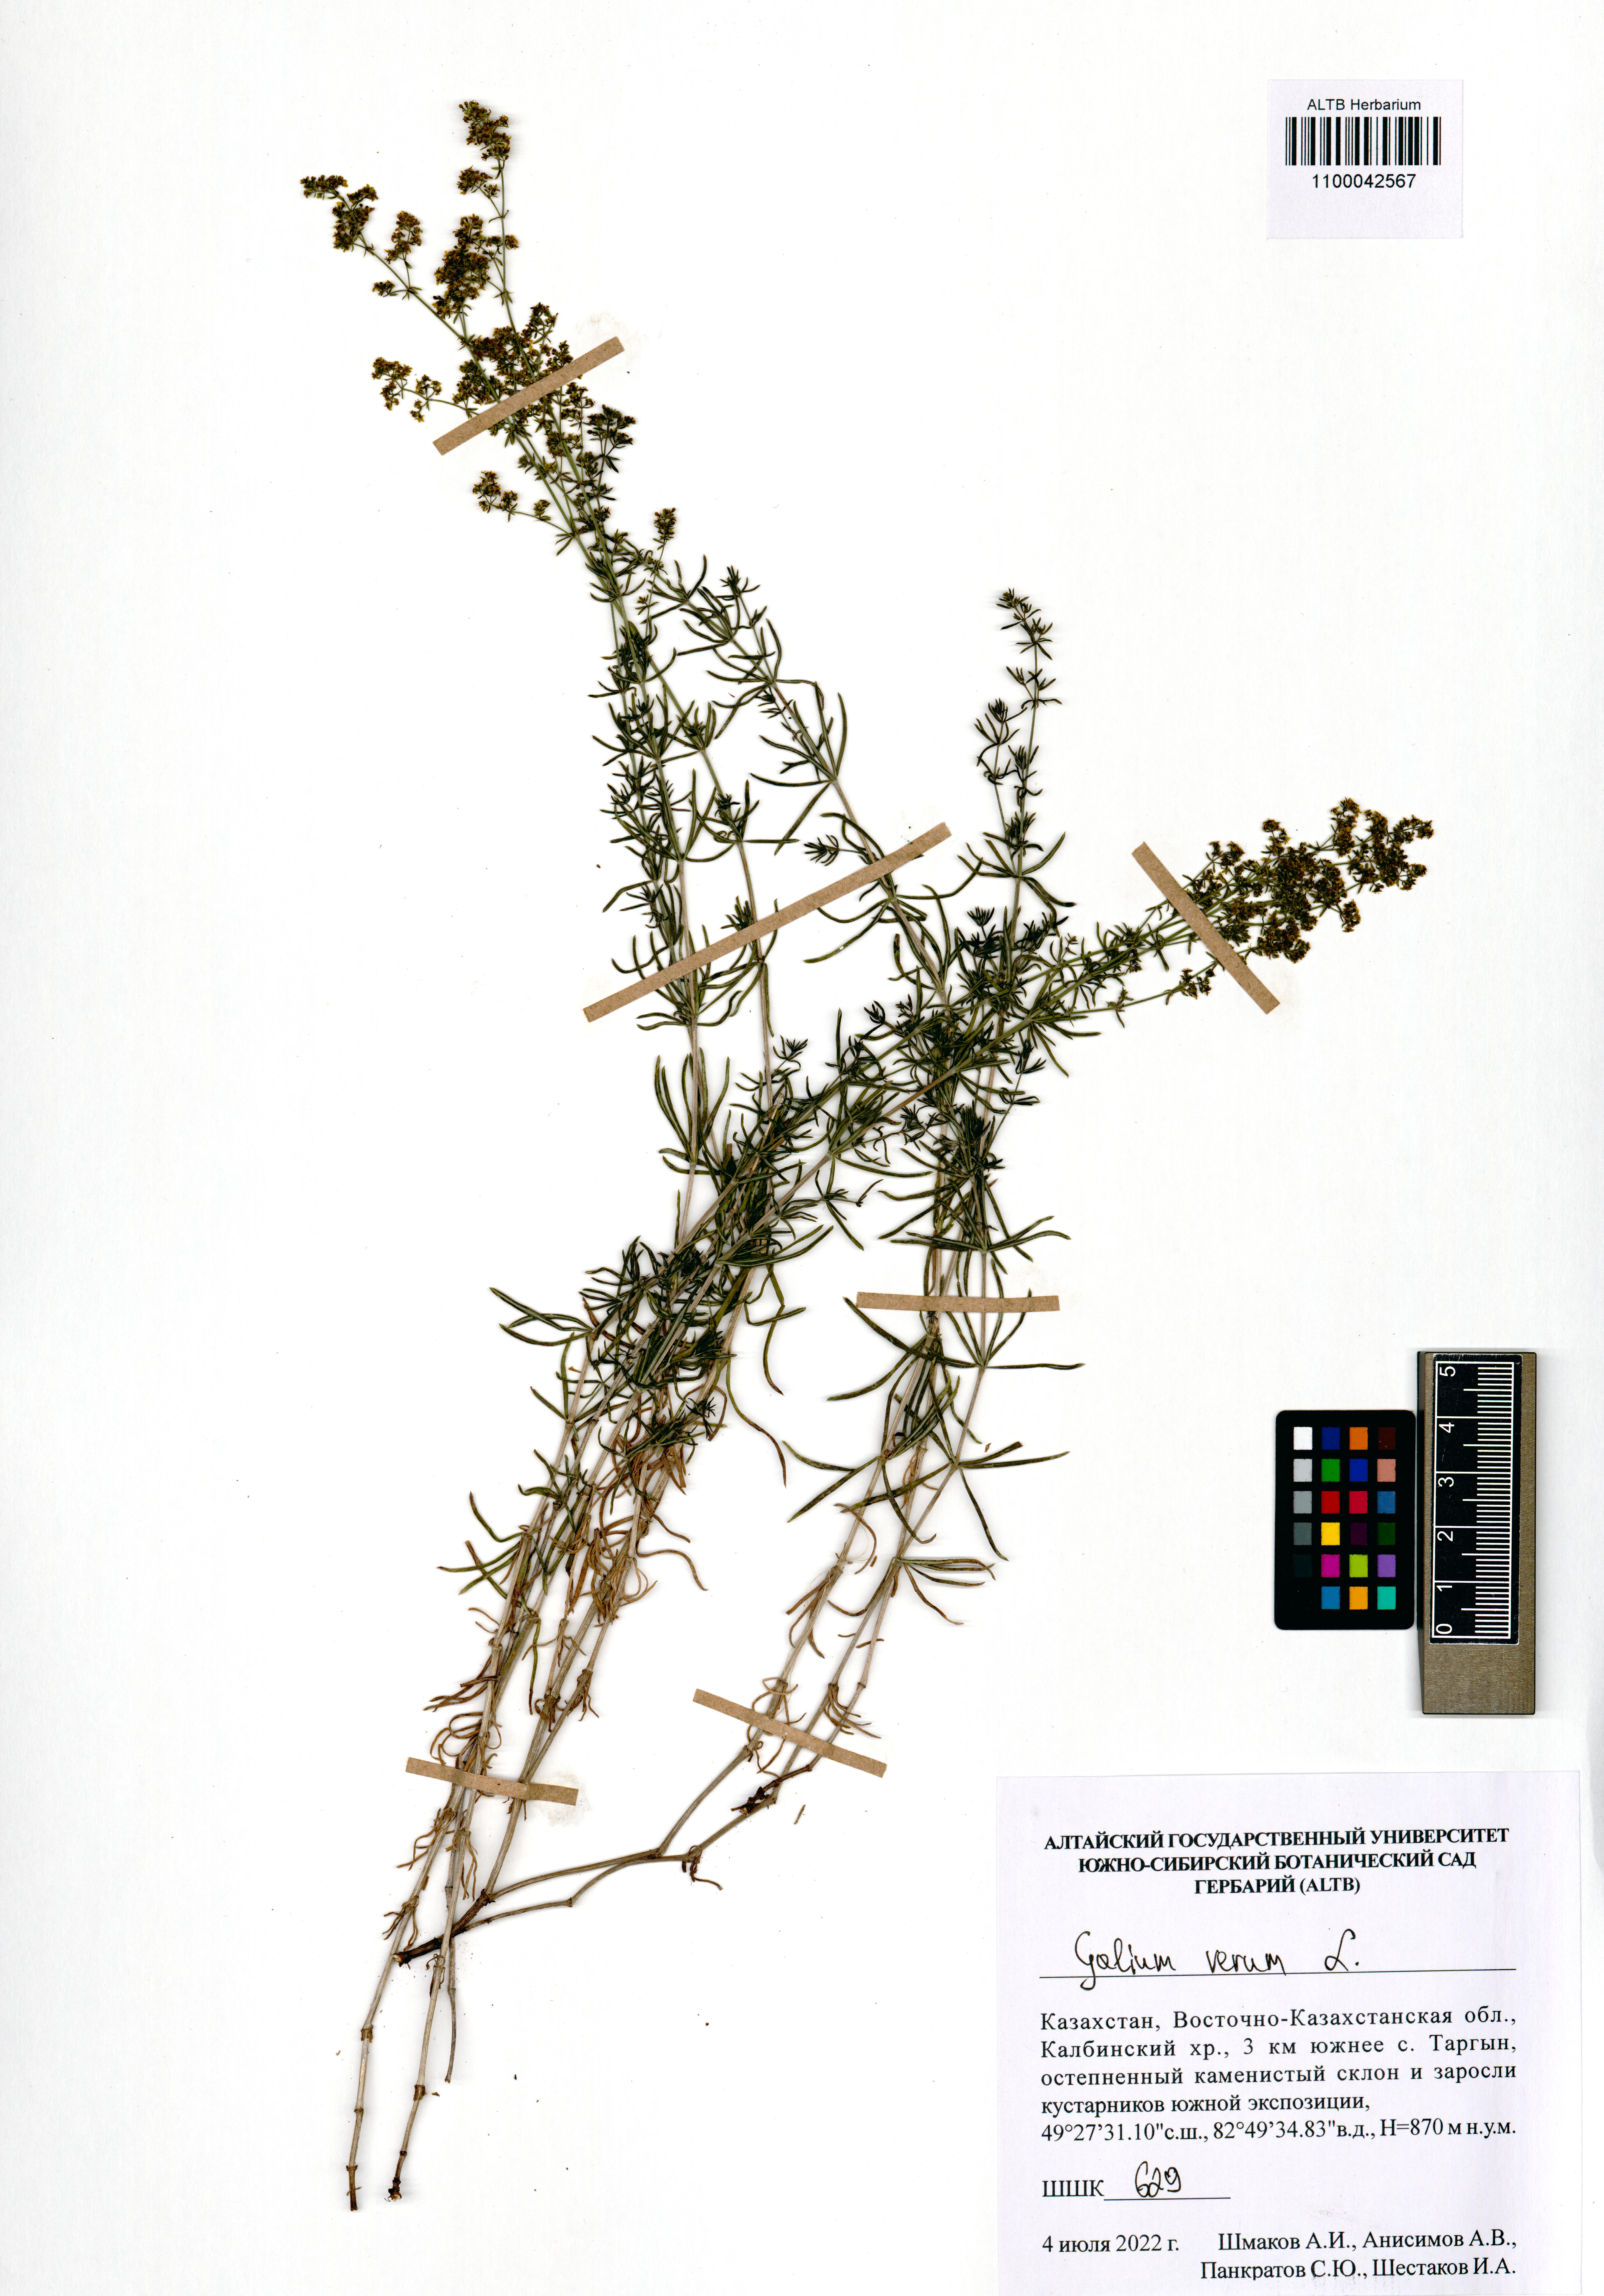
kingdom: Plantae
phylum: Tracheophyta
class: Magnoliopsida
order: Gentianales
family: Rubiaceae
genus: Galium
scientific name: Galium verum
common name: Lady's bedstraw
